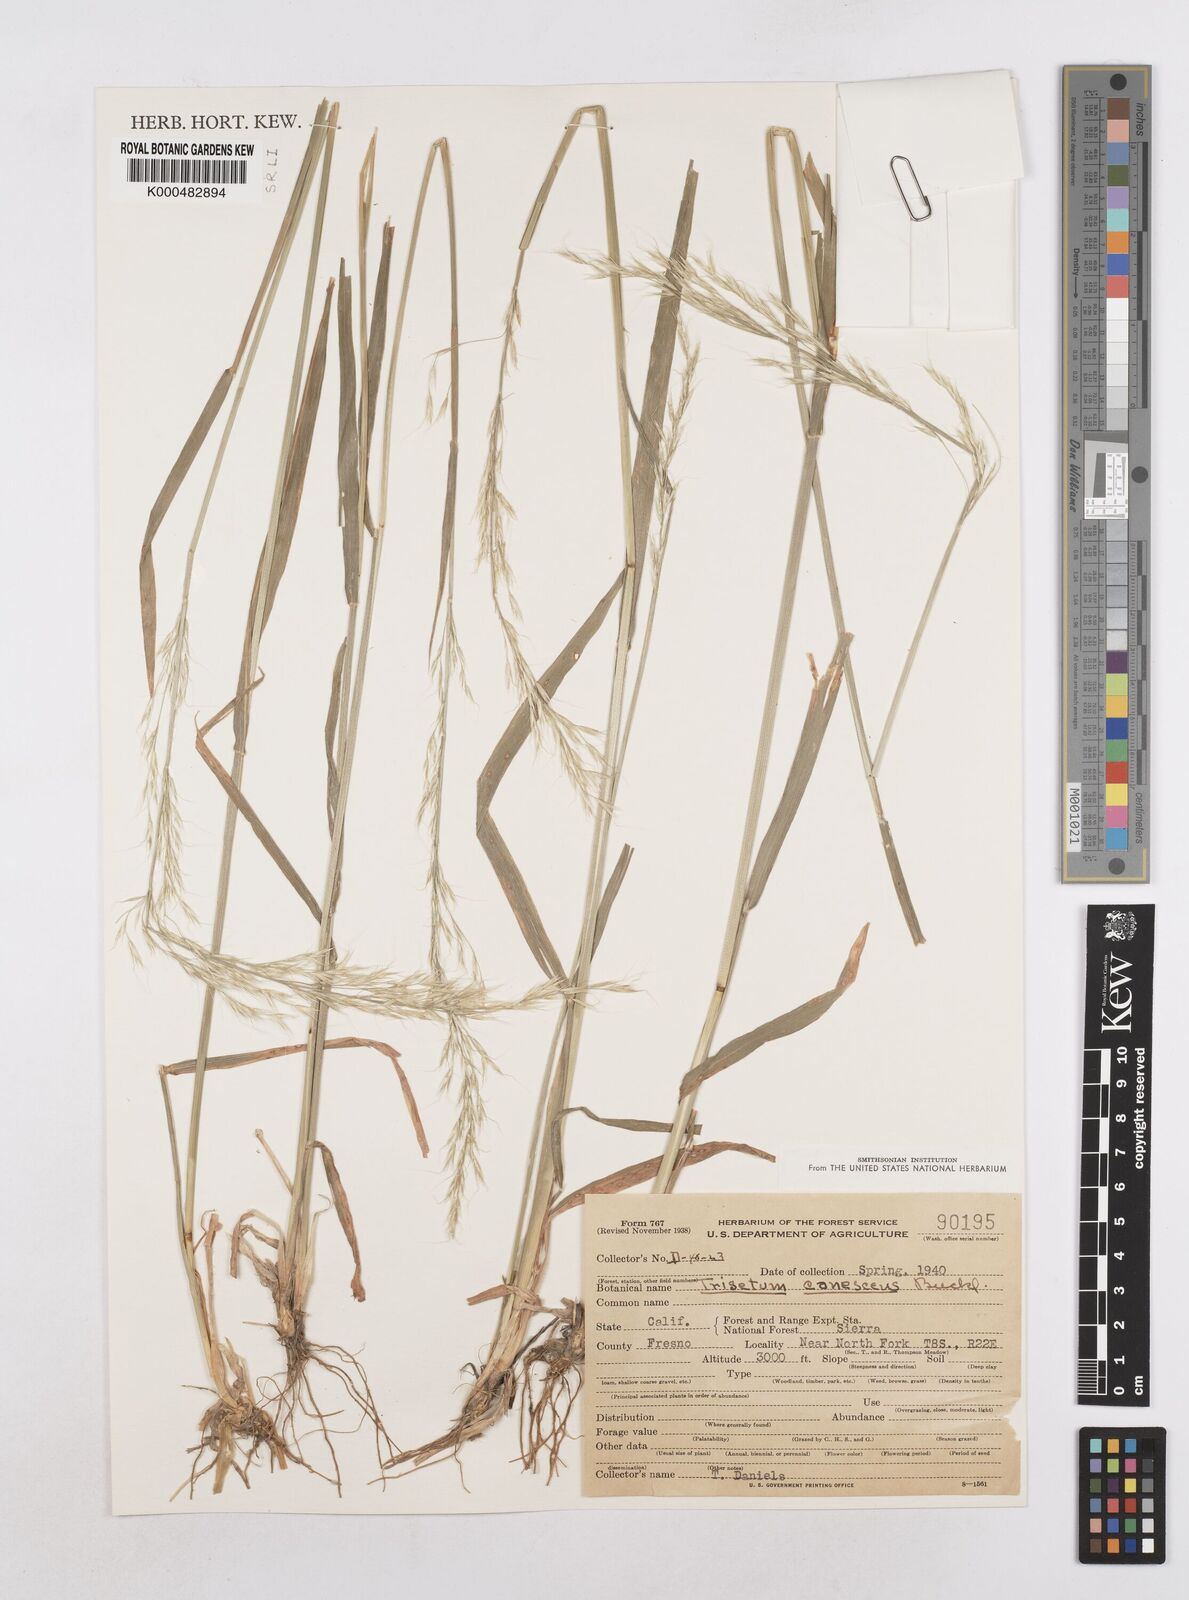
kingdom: Plantae
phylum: Tracheophyta
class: Liliopsida
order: Poales
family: Poaceae
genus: Graphephorum
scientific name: Graphephorum canescens
